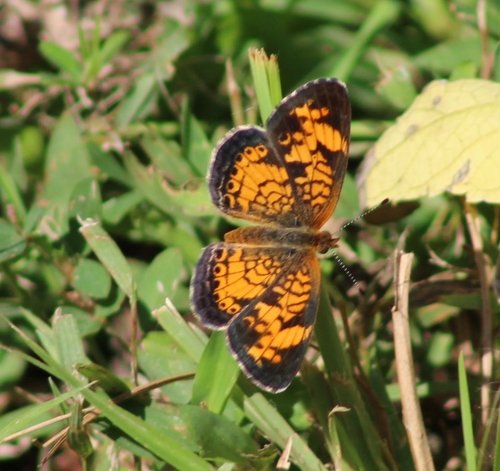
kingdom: Animalia
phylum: Arthropoda
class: Insecta
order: Lepidoptera
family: Nymphalidae
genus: Phyciodes
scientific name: Phyciodes tharos
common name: Pearl Crescent
